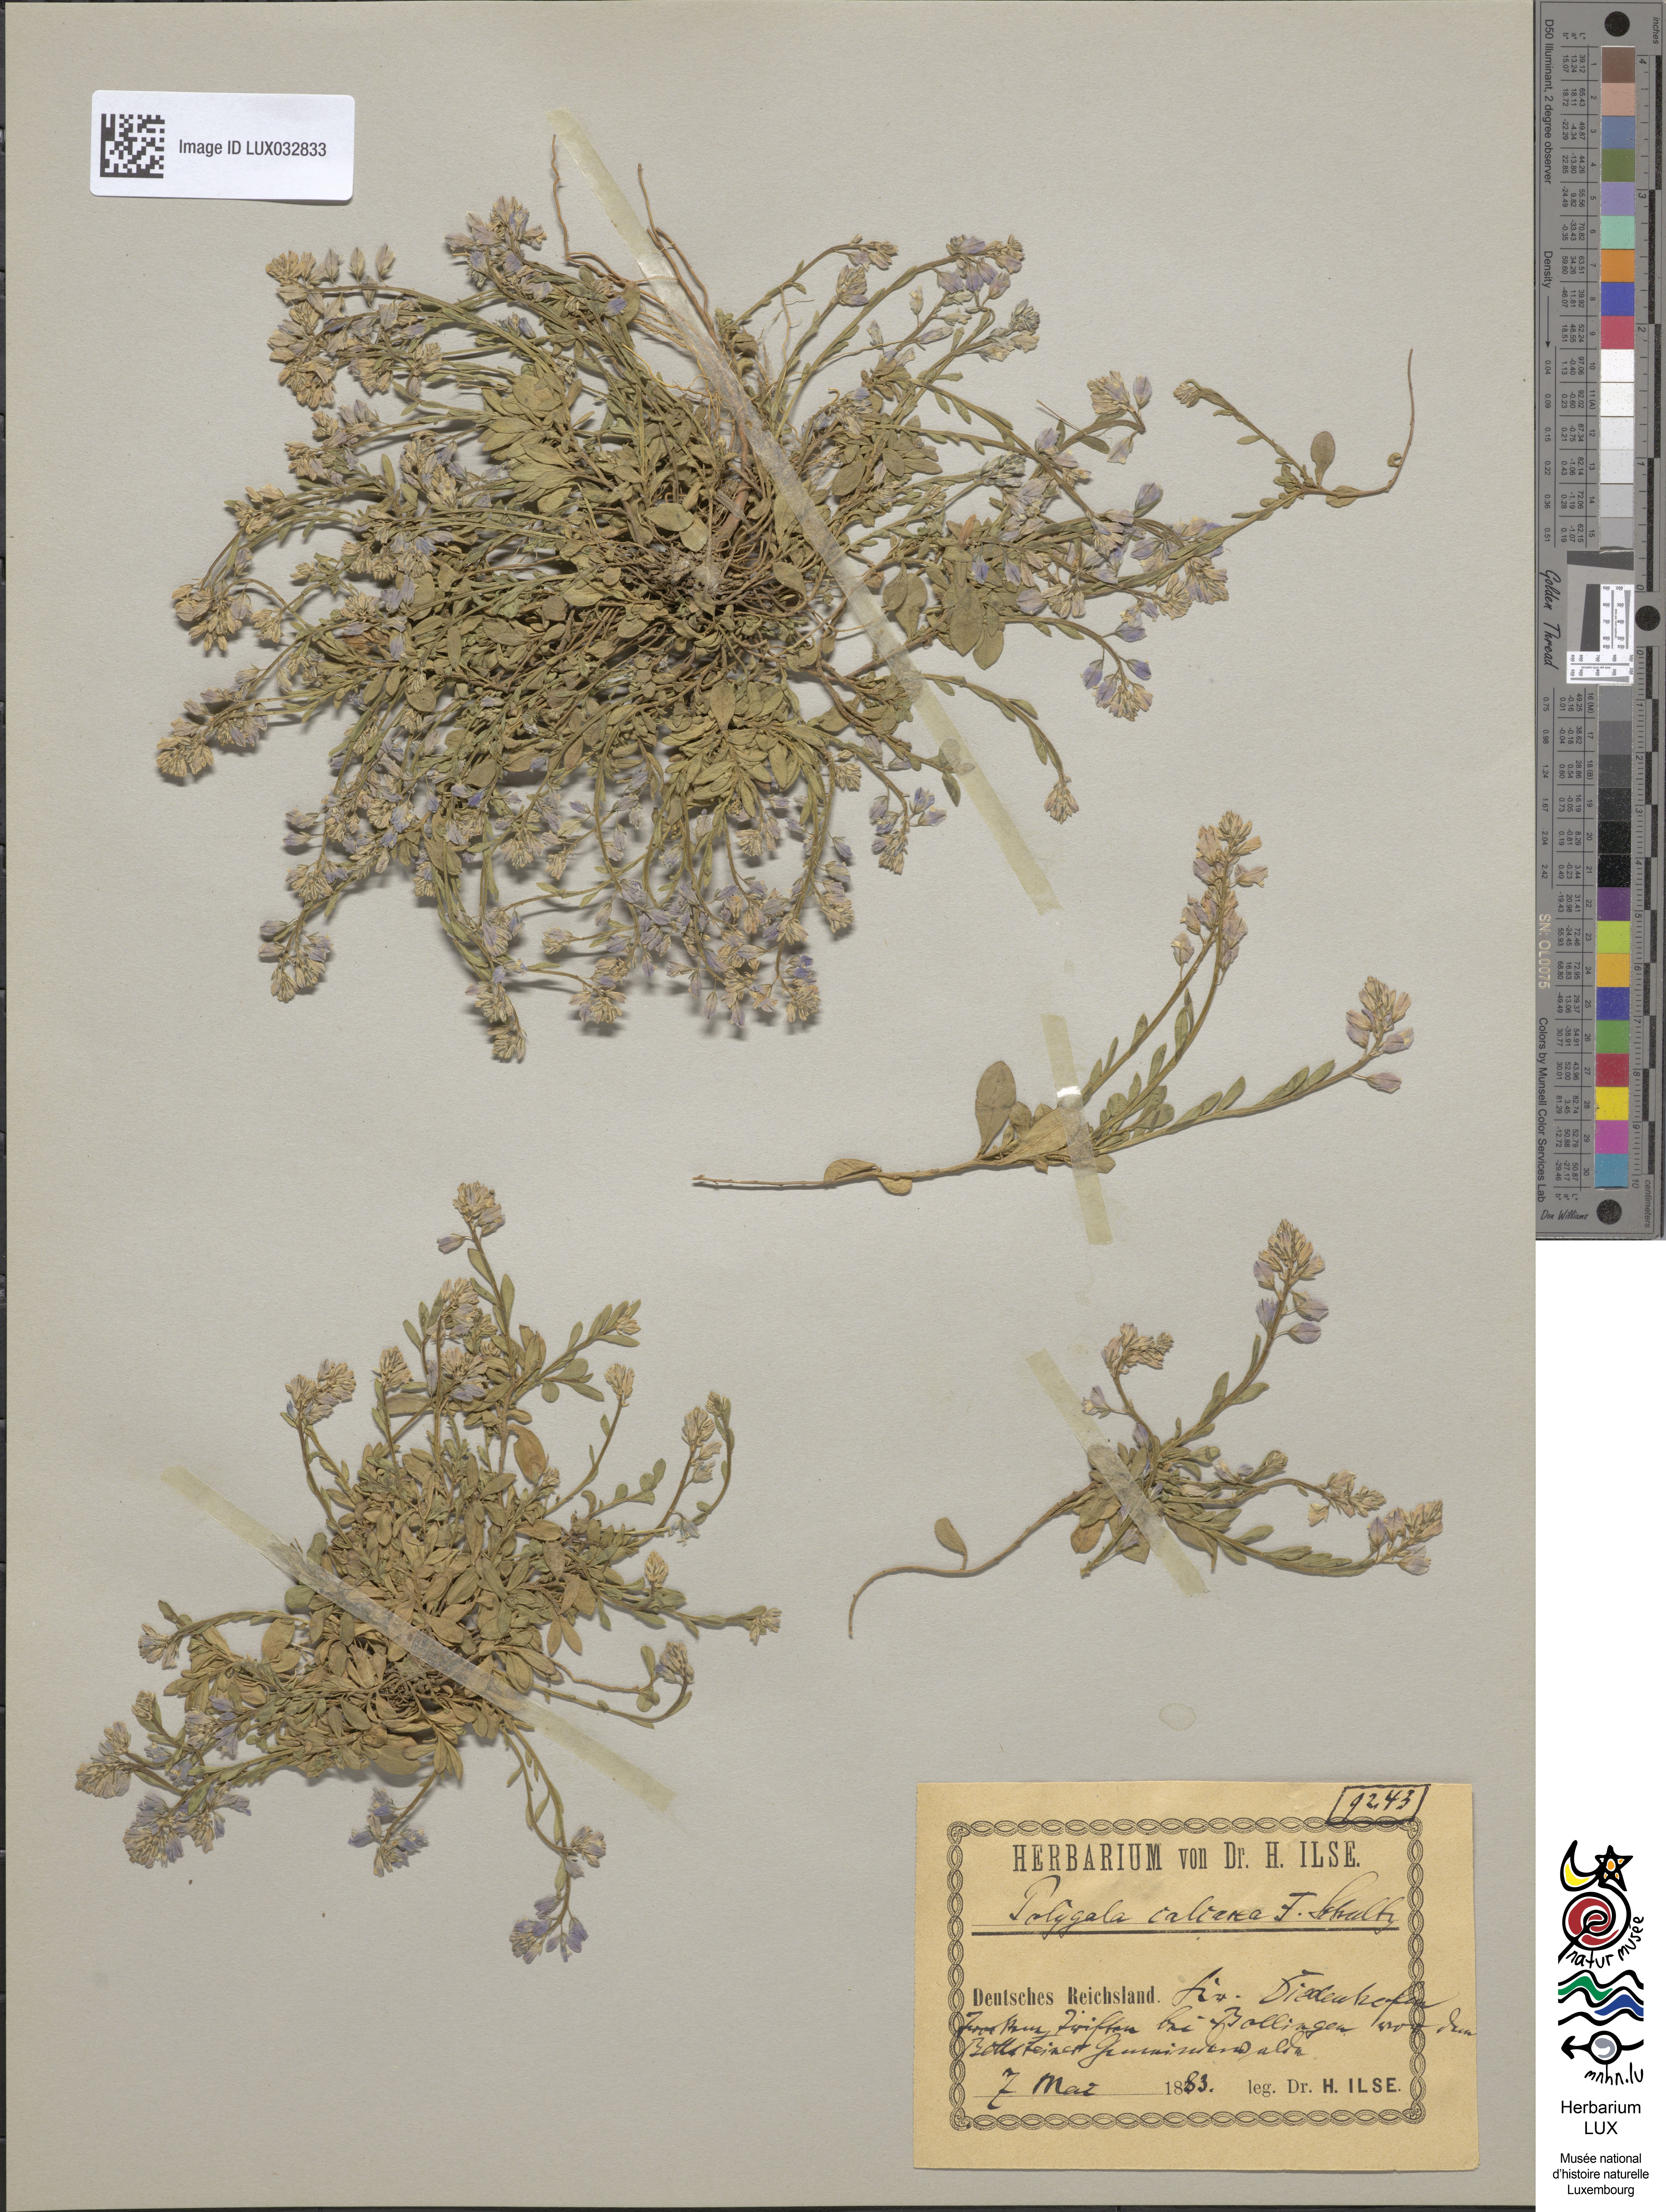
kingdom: Plantae
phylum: Tracheophyta
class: Magnoliopsida
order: Fabales
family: Polygalaceae
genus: Polygala
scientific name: Polygala calcarea
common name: Chalk milkwort
